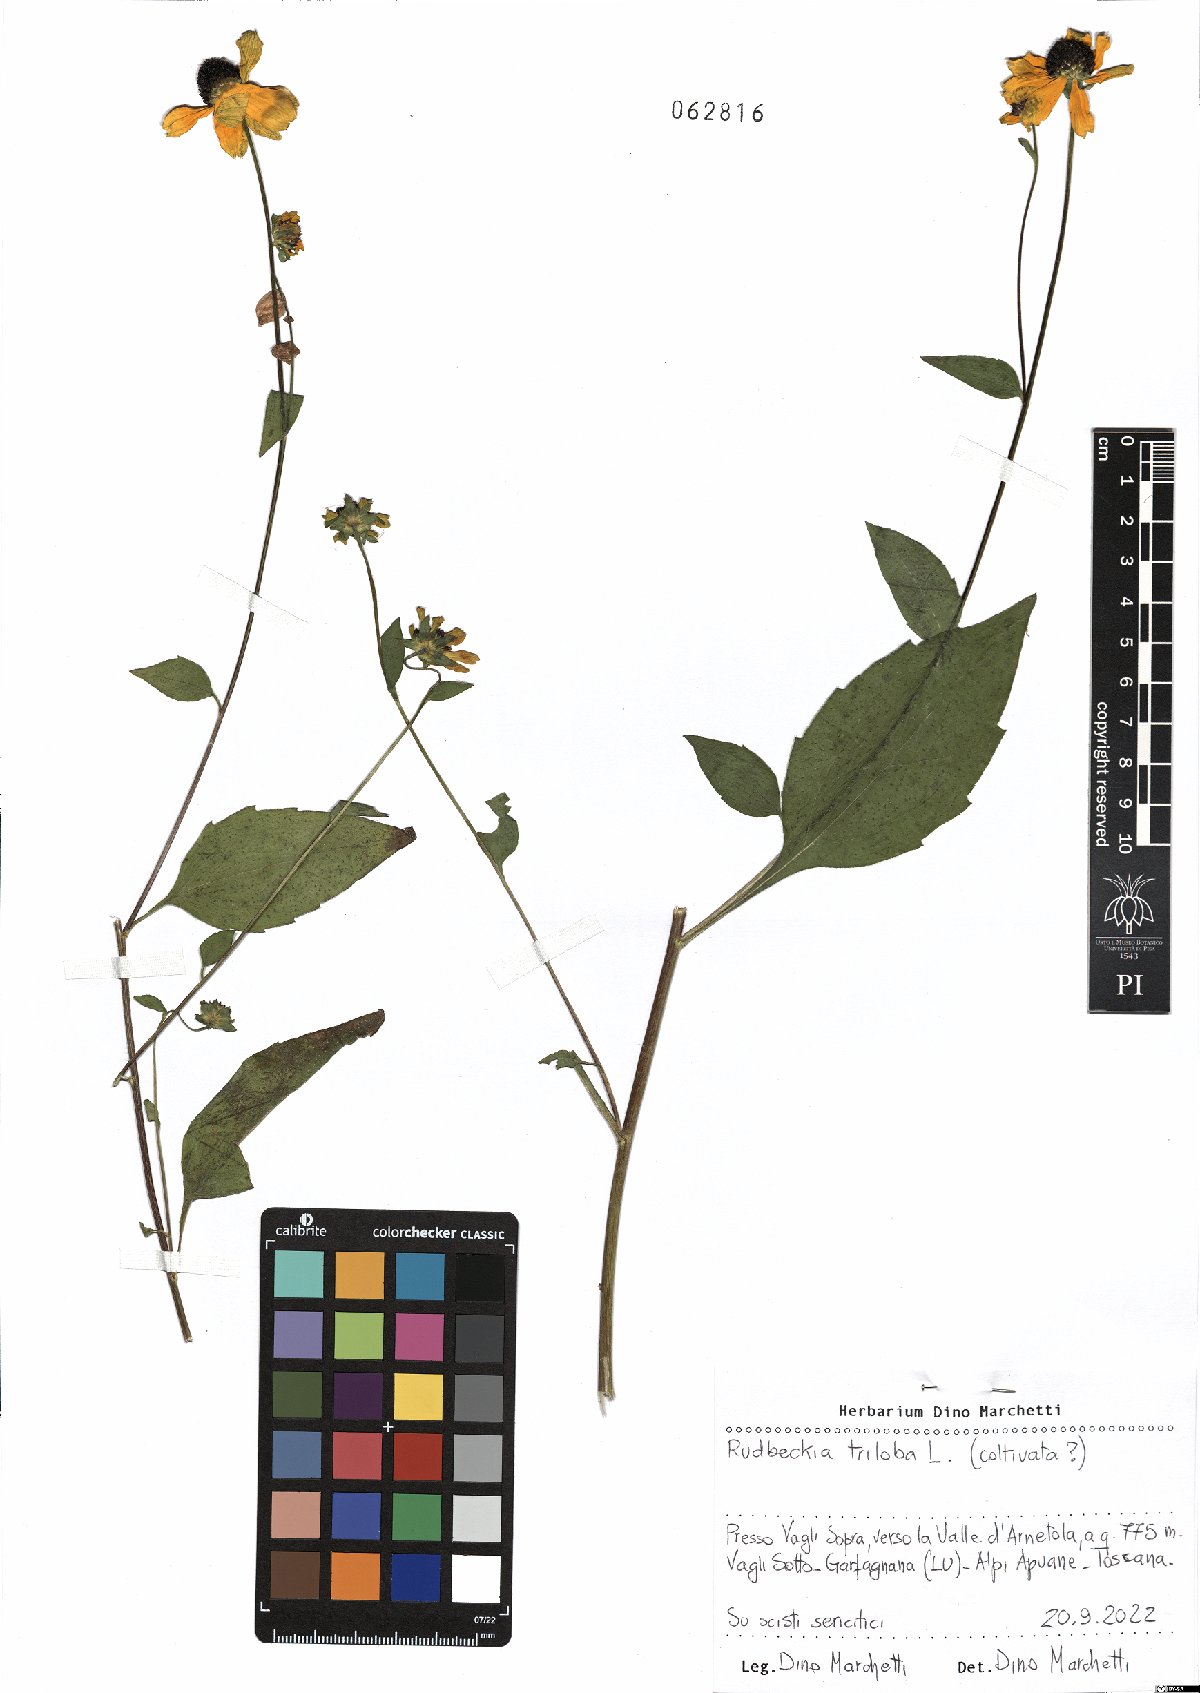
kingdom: Plantae
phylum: Tracheophyta
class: Magnoliopsida
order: Asterales
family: Asteraceae
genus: Rudbeckia
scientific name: Rudbeckia triloba
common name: Thin-leaved coneflower
